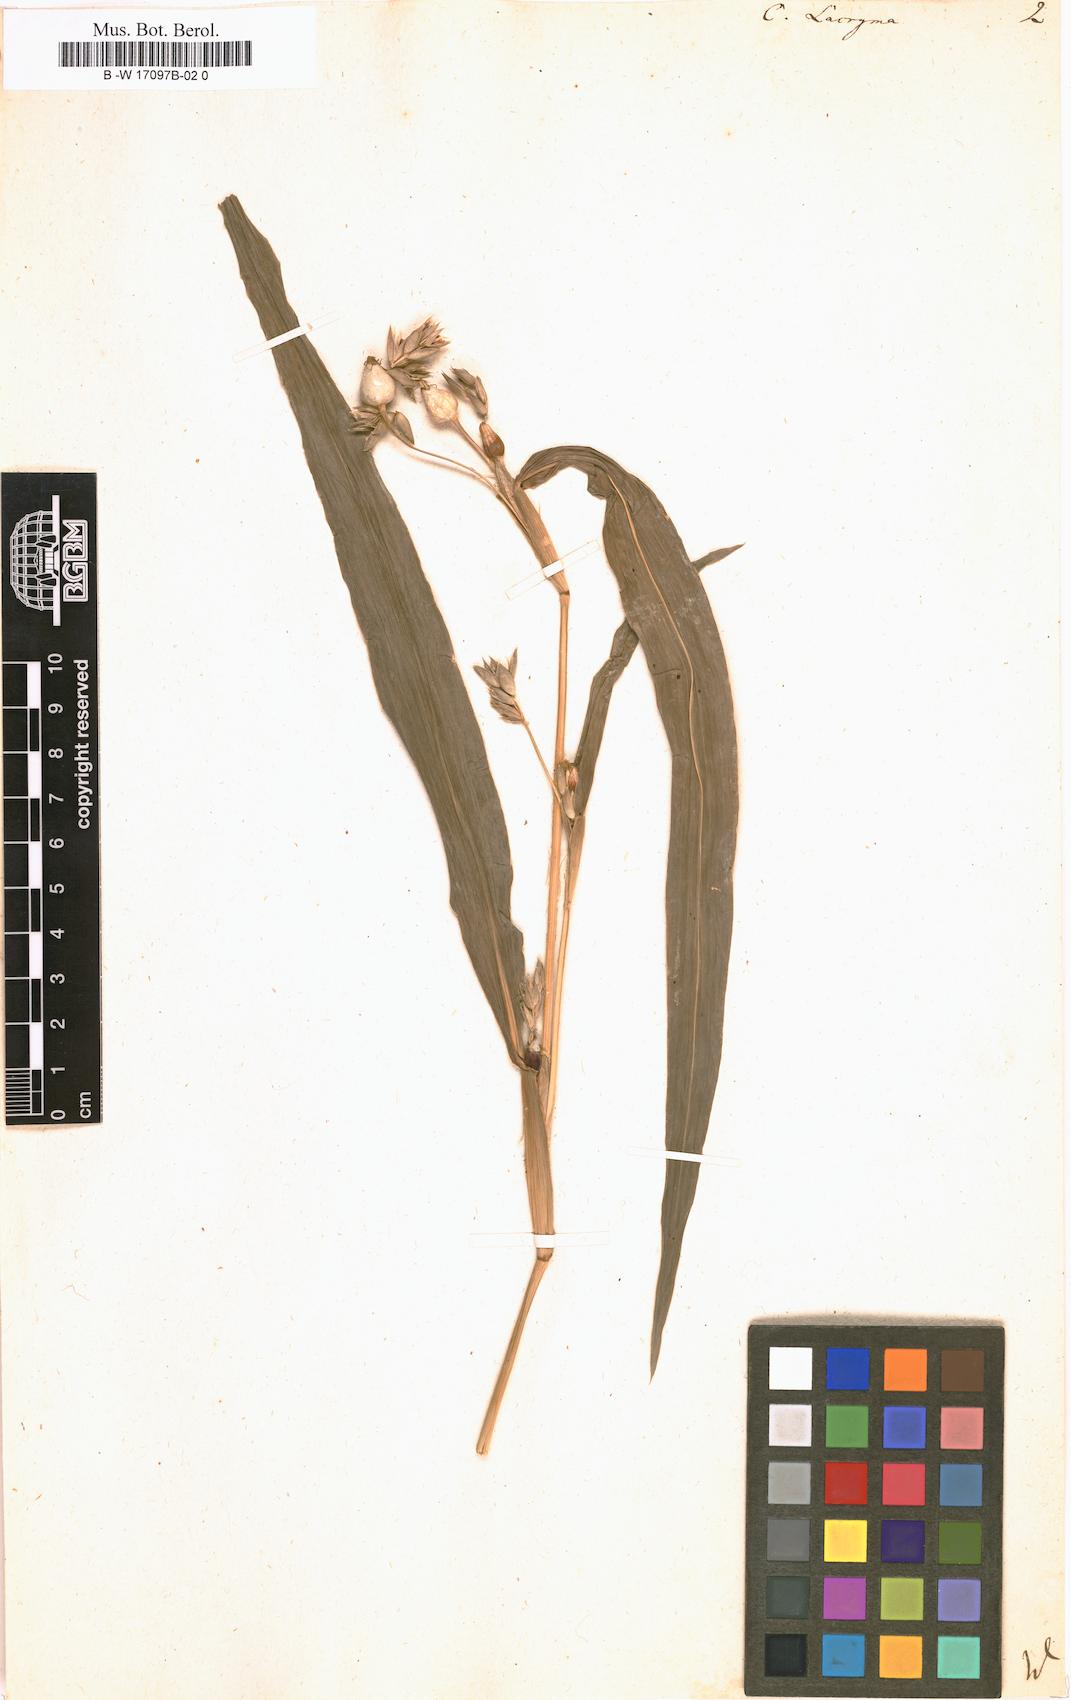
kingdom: Plantae
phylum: Tracheophyta
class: Liliopsida
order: Poales
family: Poaceae
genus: Coix
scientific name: Coix lacryma-jobi
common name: Job's tears
